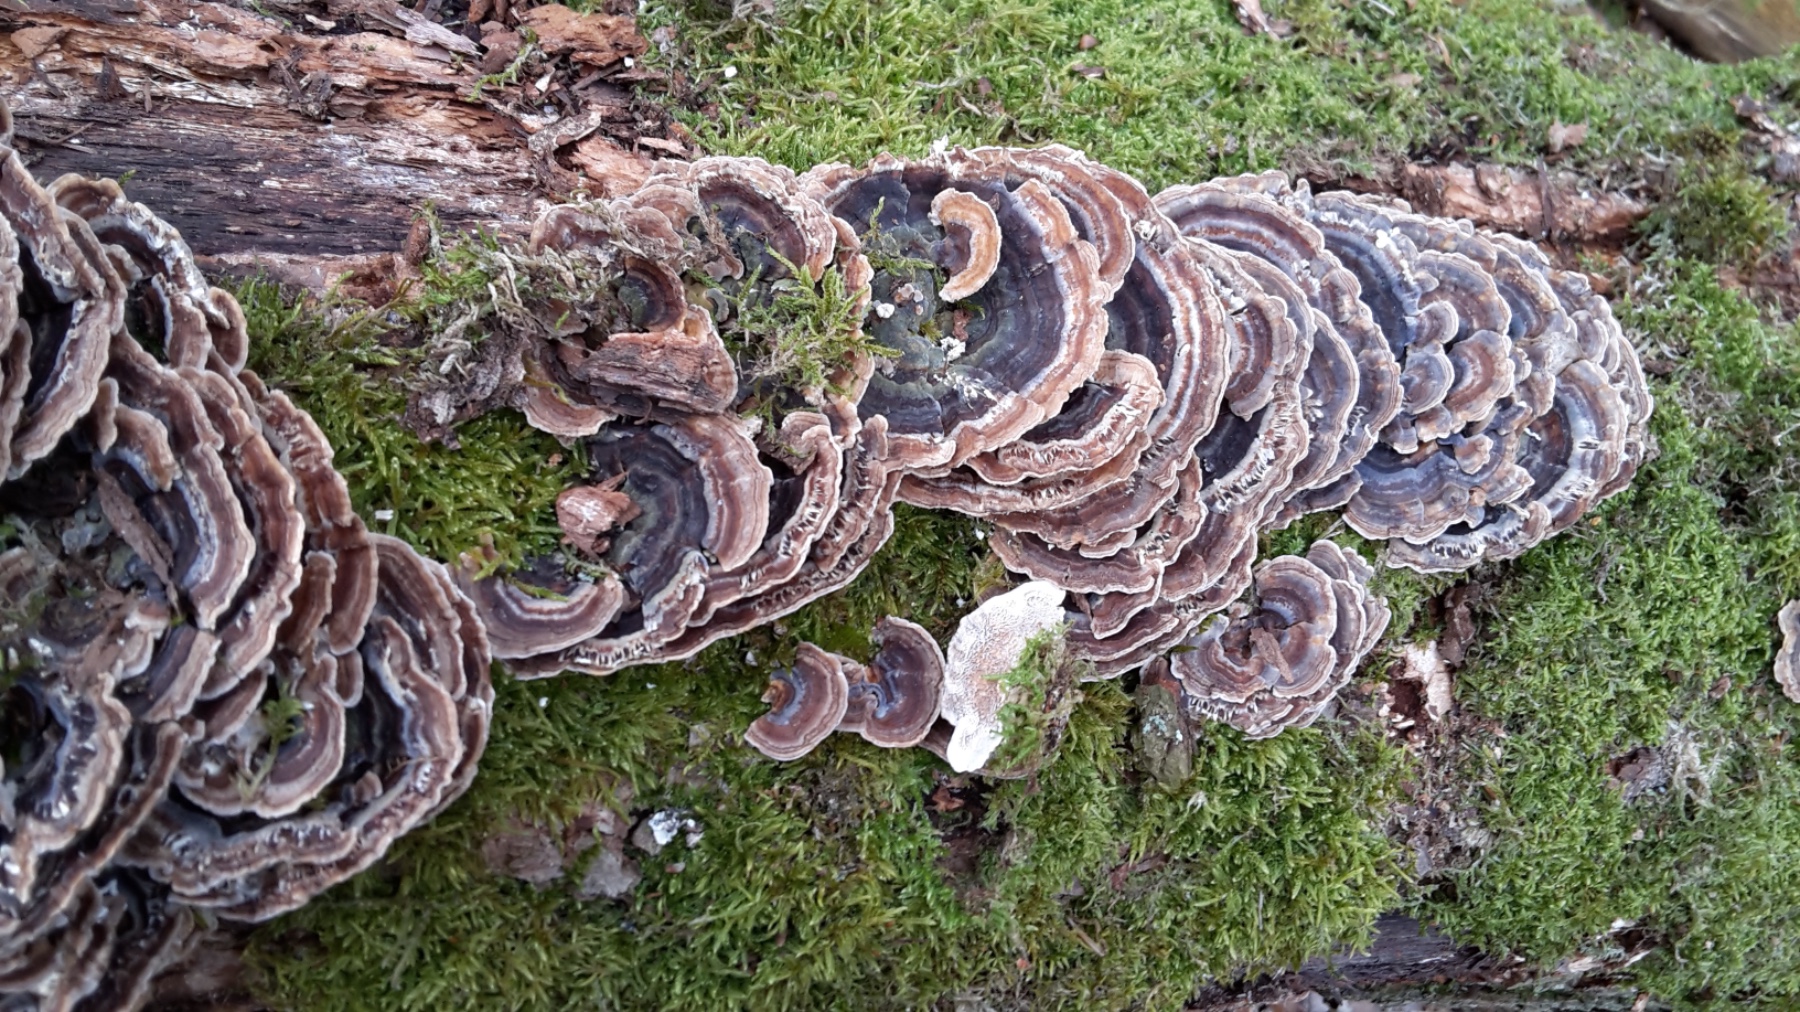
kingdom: Fungi
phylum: Basidiomycota
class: Agaricomycetes
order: Polyporales
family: Polyporaceae
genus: Trametes
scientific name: Trametes versicolor
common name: broget læderporesvamp
